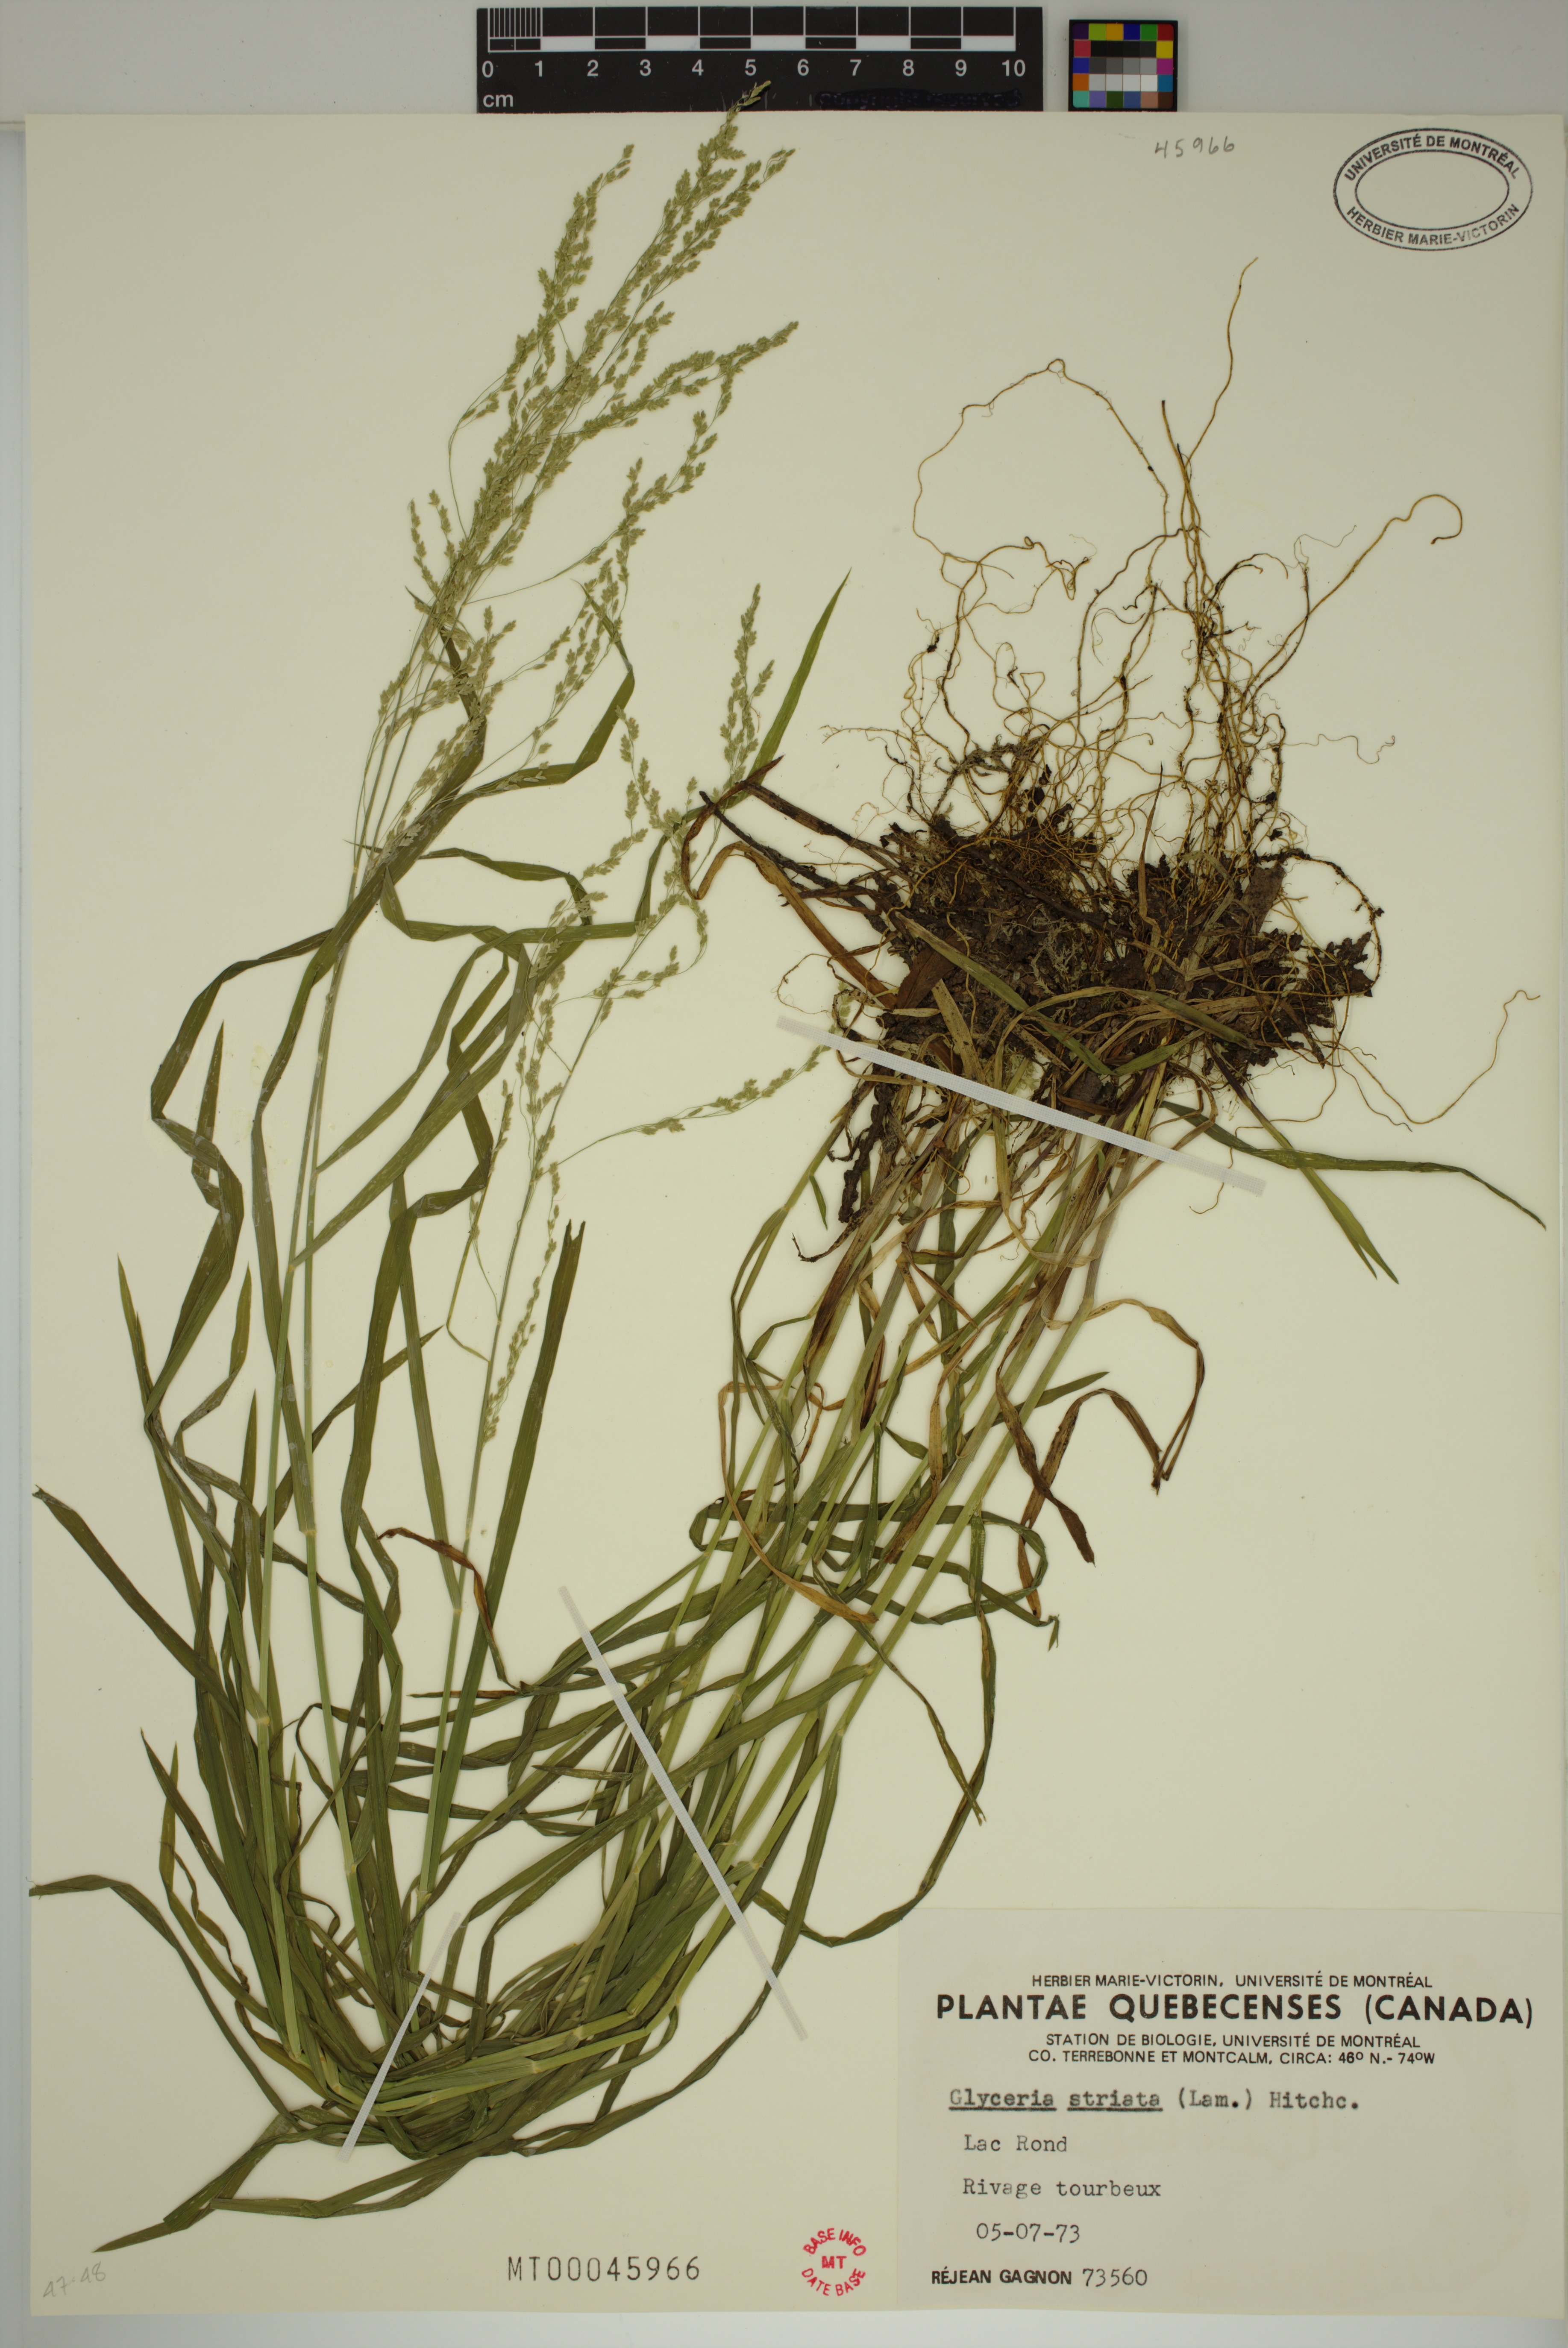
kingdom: Plantae
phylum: Tracheophyta
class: Liliopsida
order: Poales
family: Poaceae
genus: Glyceria
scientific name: Glyceria striata
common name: Fowl manna grass
